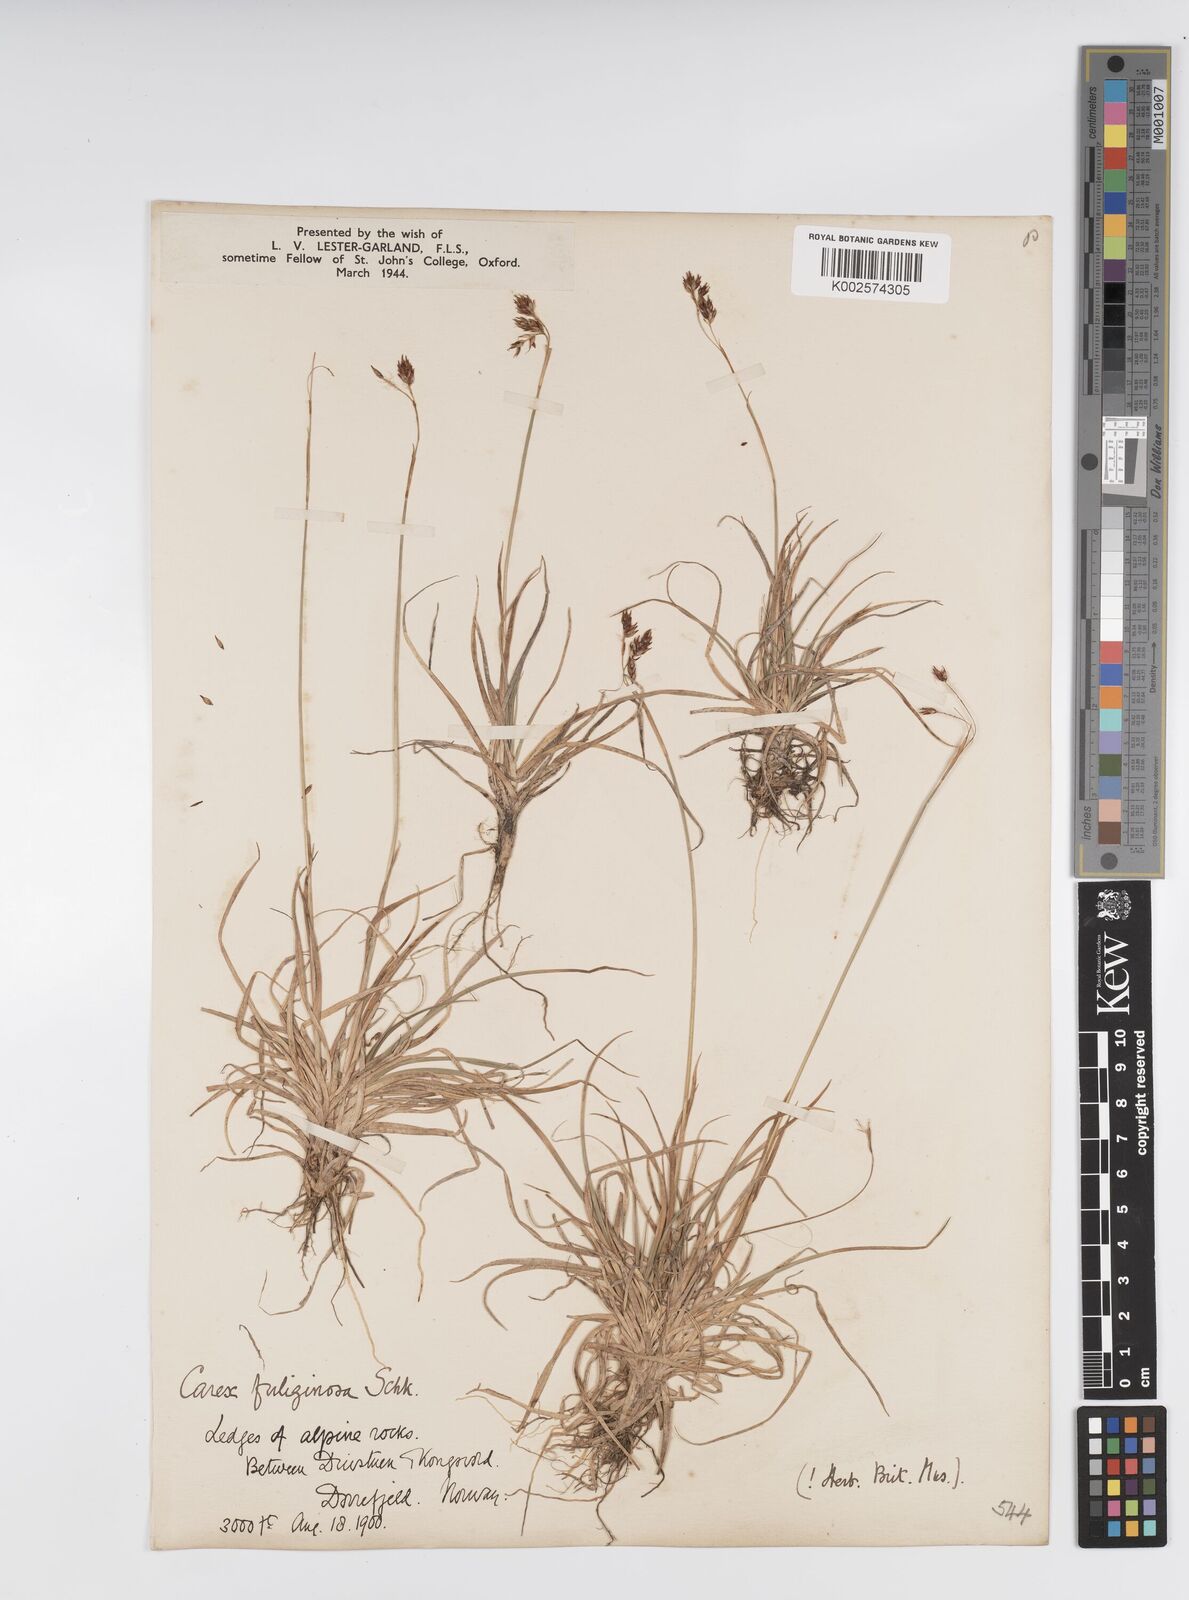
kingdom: Plantae
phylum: Tracheophyta
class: Liliopsida
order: Poales
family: Cyperaceae
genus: Carex
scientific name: Carex fuliginosa
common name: Few-flowered sedge
